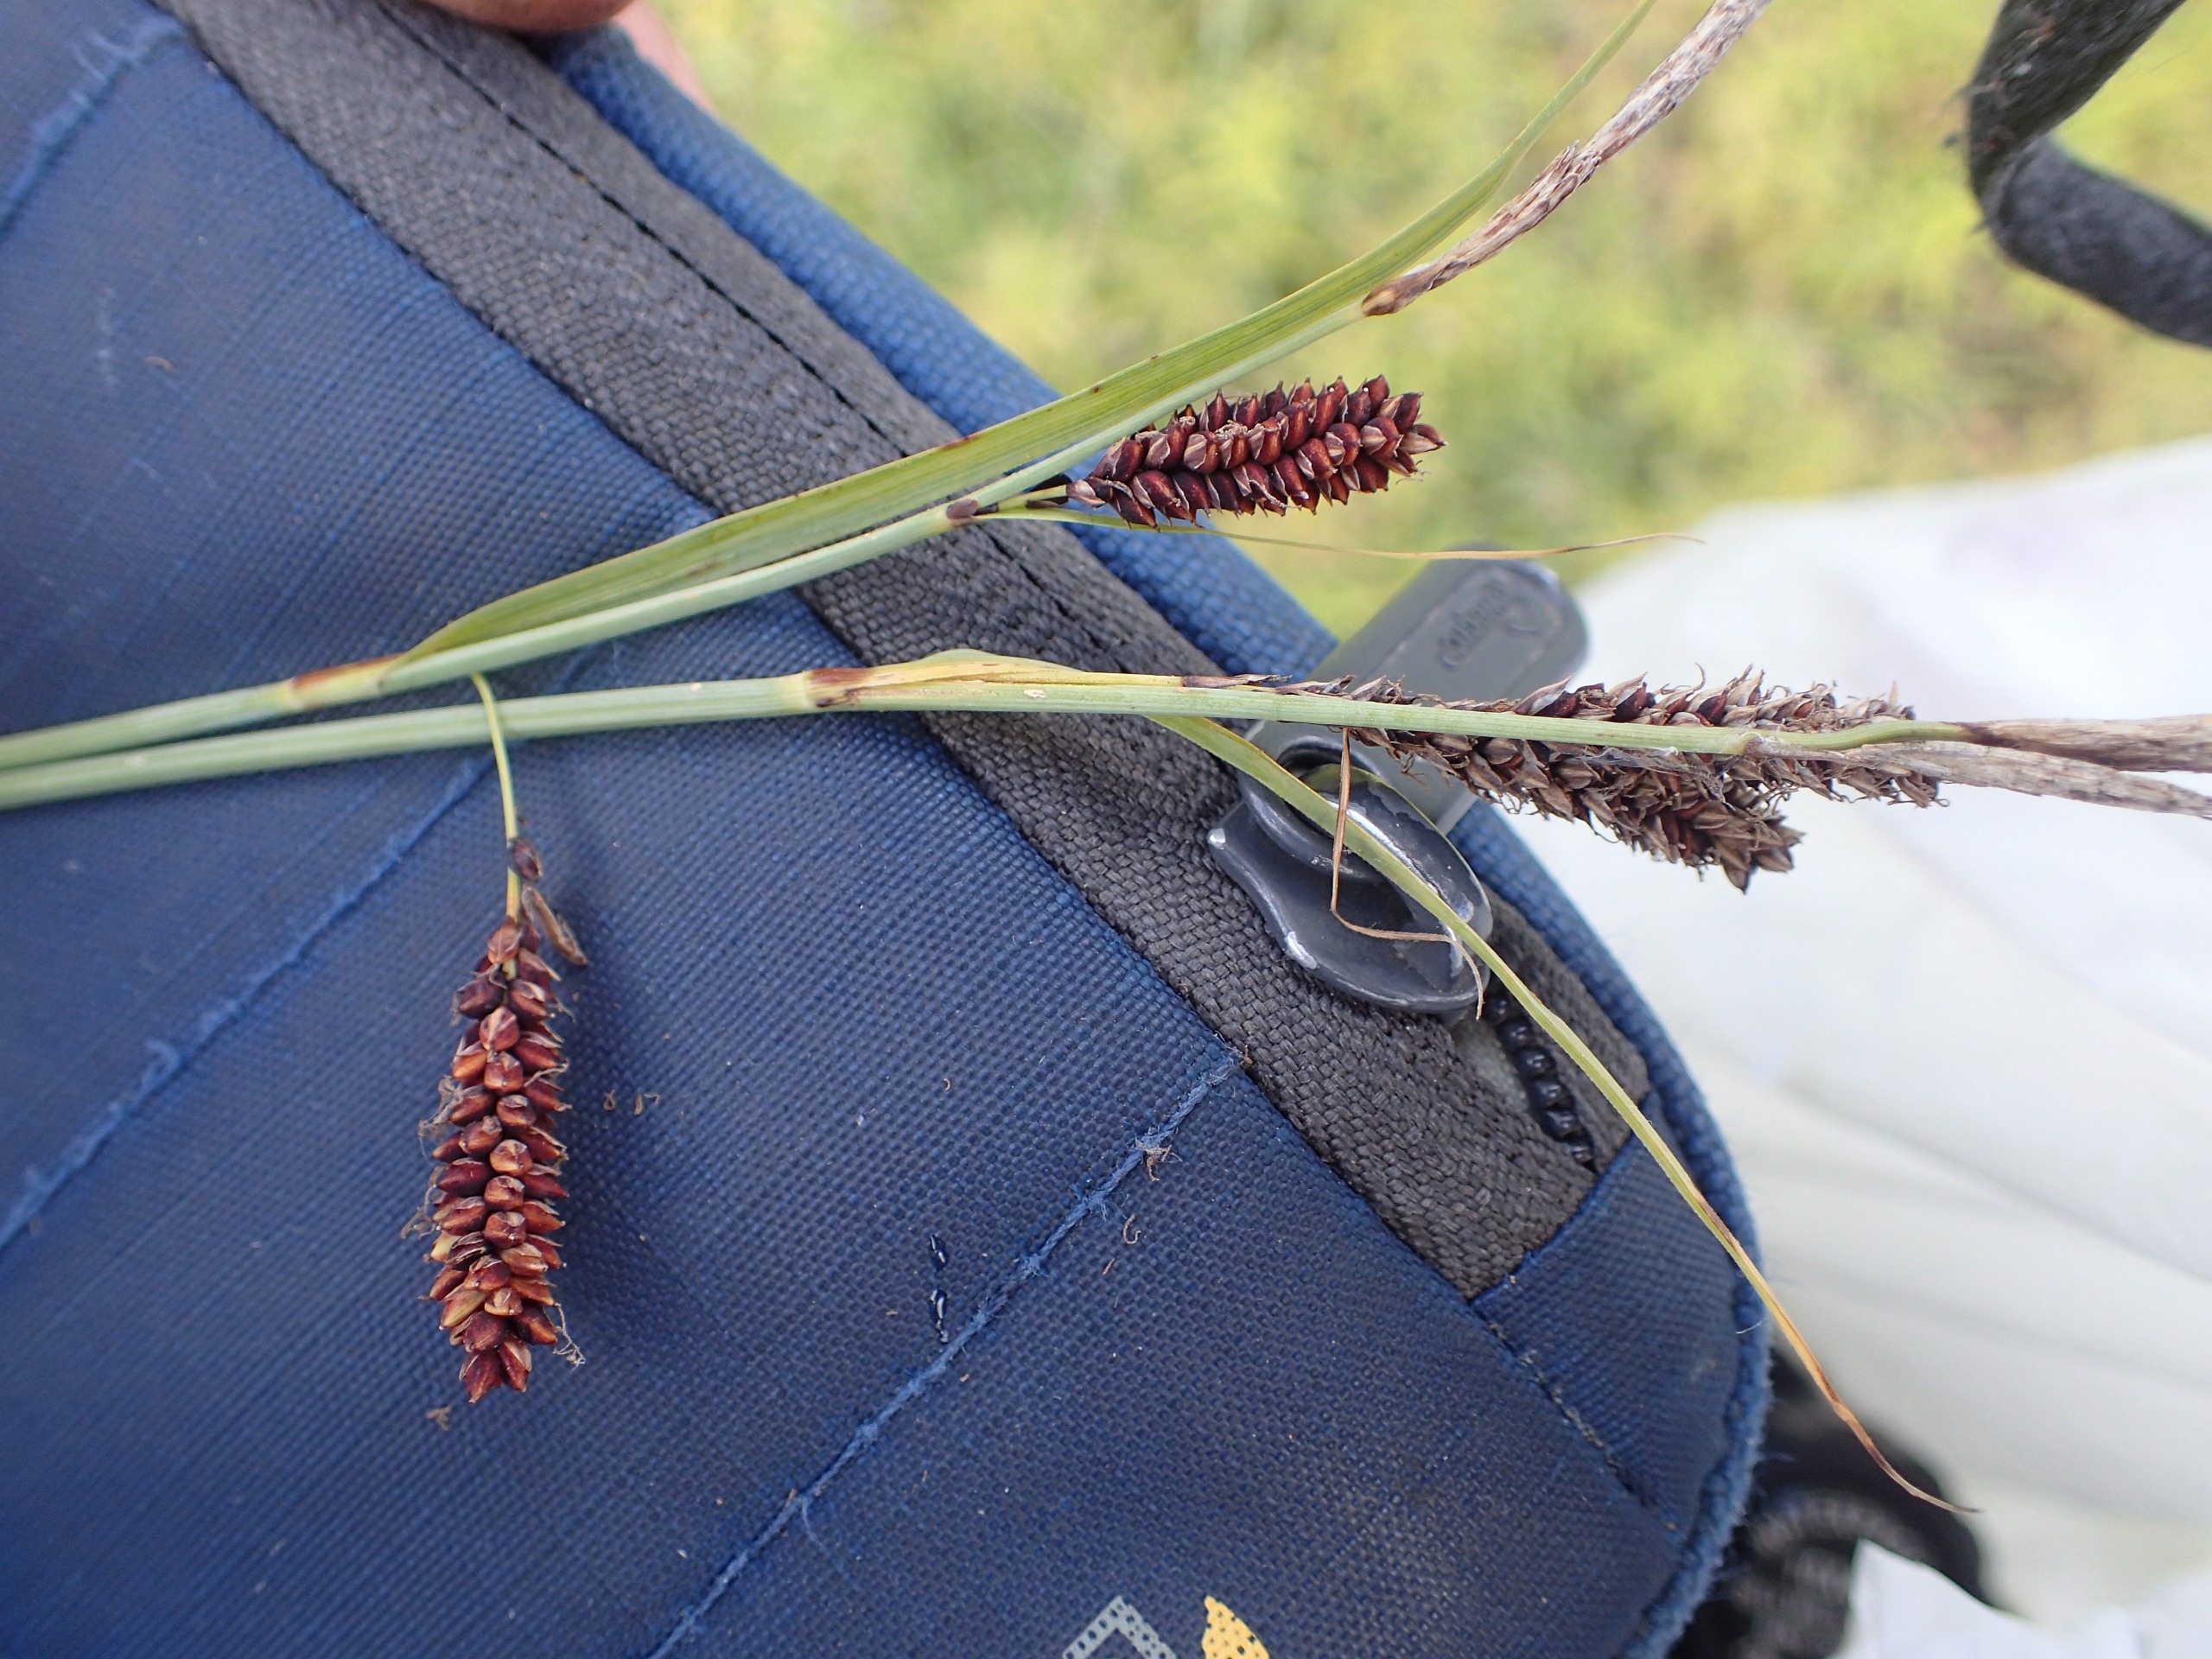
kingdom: Plantae
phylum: Tracheophyta
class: Liliopsida
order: Poales
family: Cyperaceae
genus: Carex
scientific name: Carex flacca
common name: Blågrøn star
